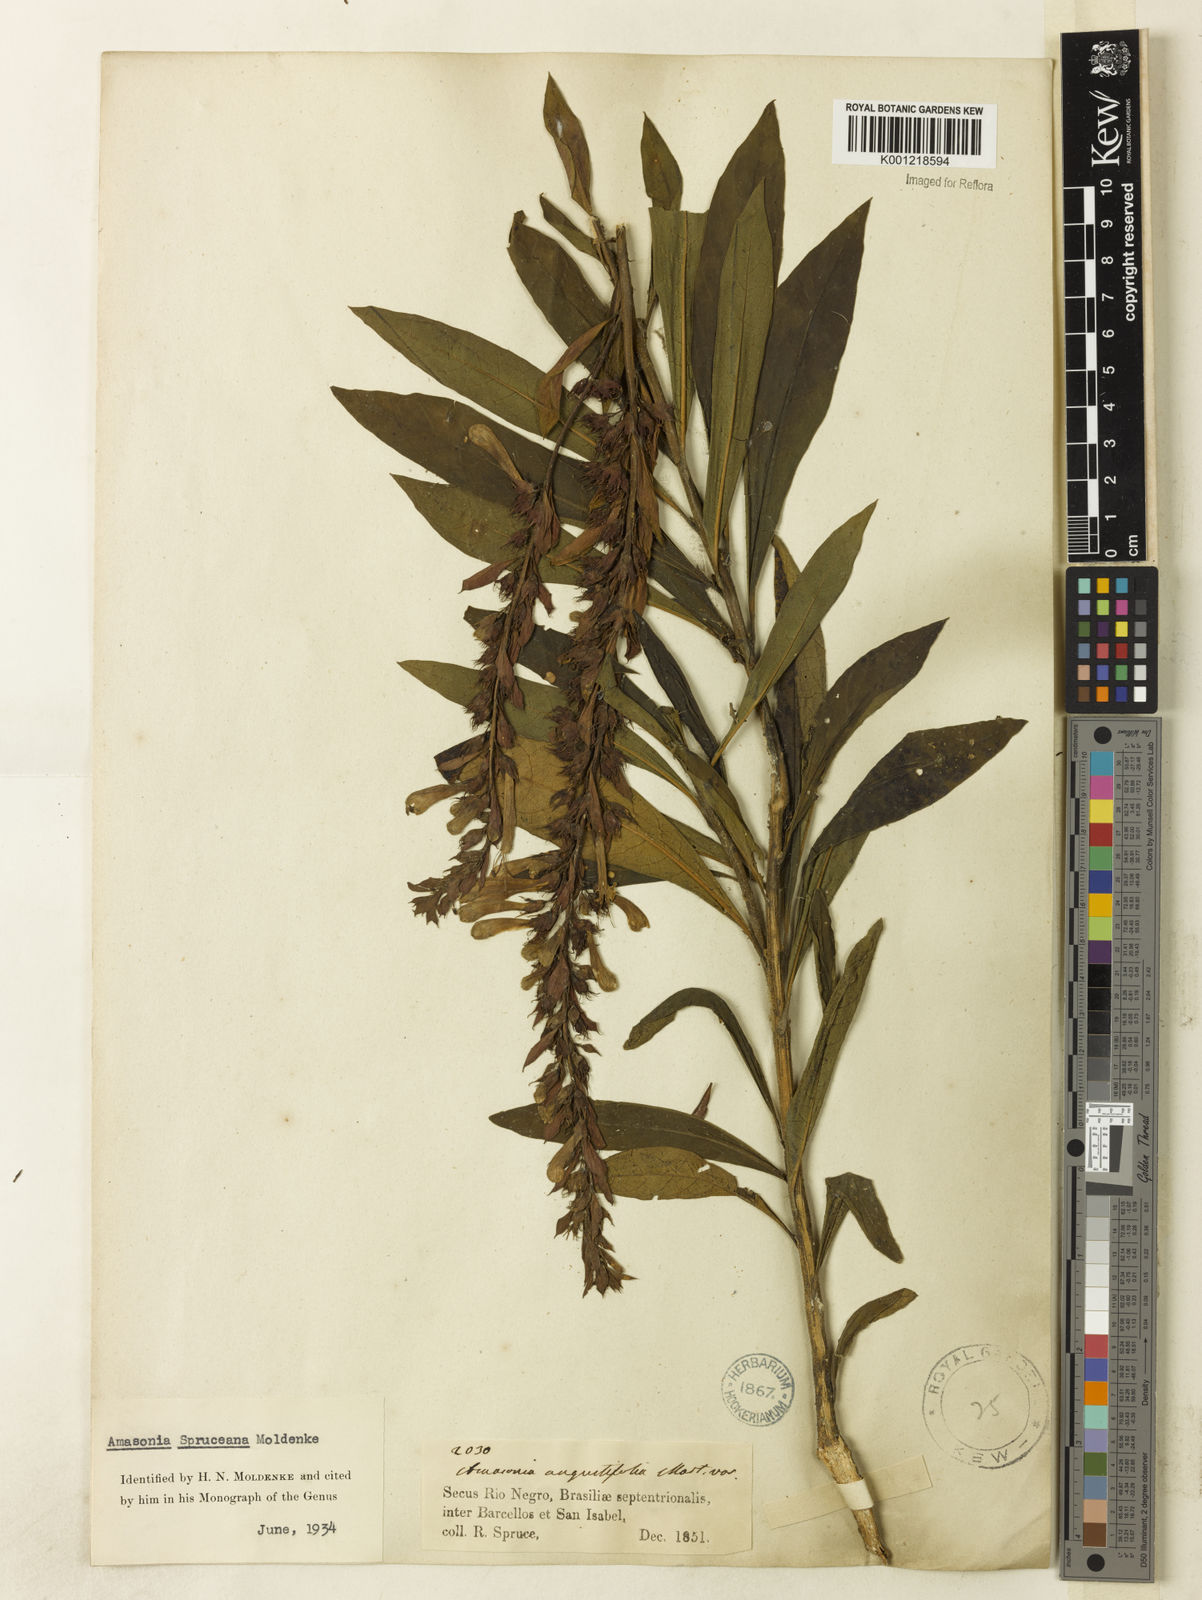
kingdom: Plantae
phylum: Tracheophyta
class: Magnoliopsida
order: Lamiales
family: Lamiaceae
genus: Amasonia
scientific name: Amasonia campestris
